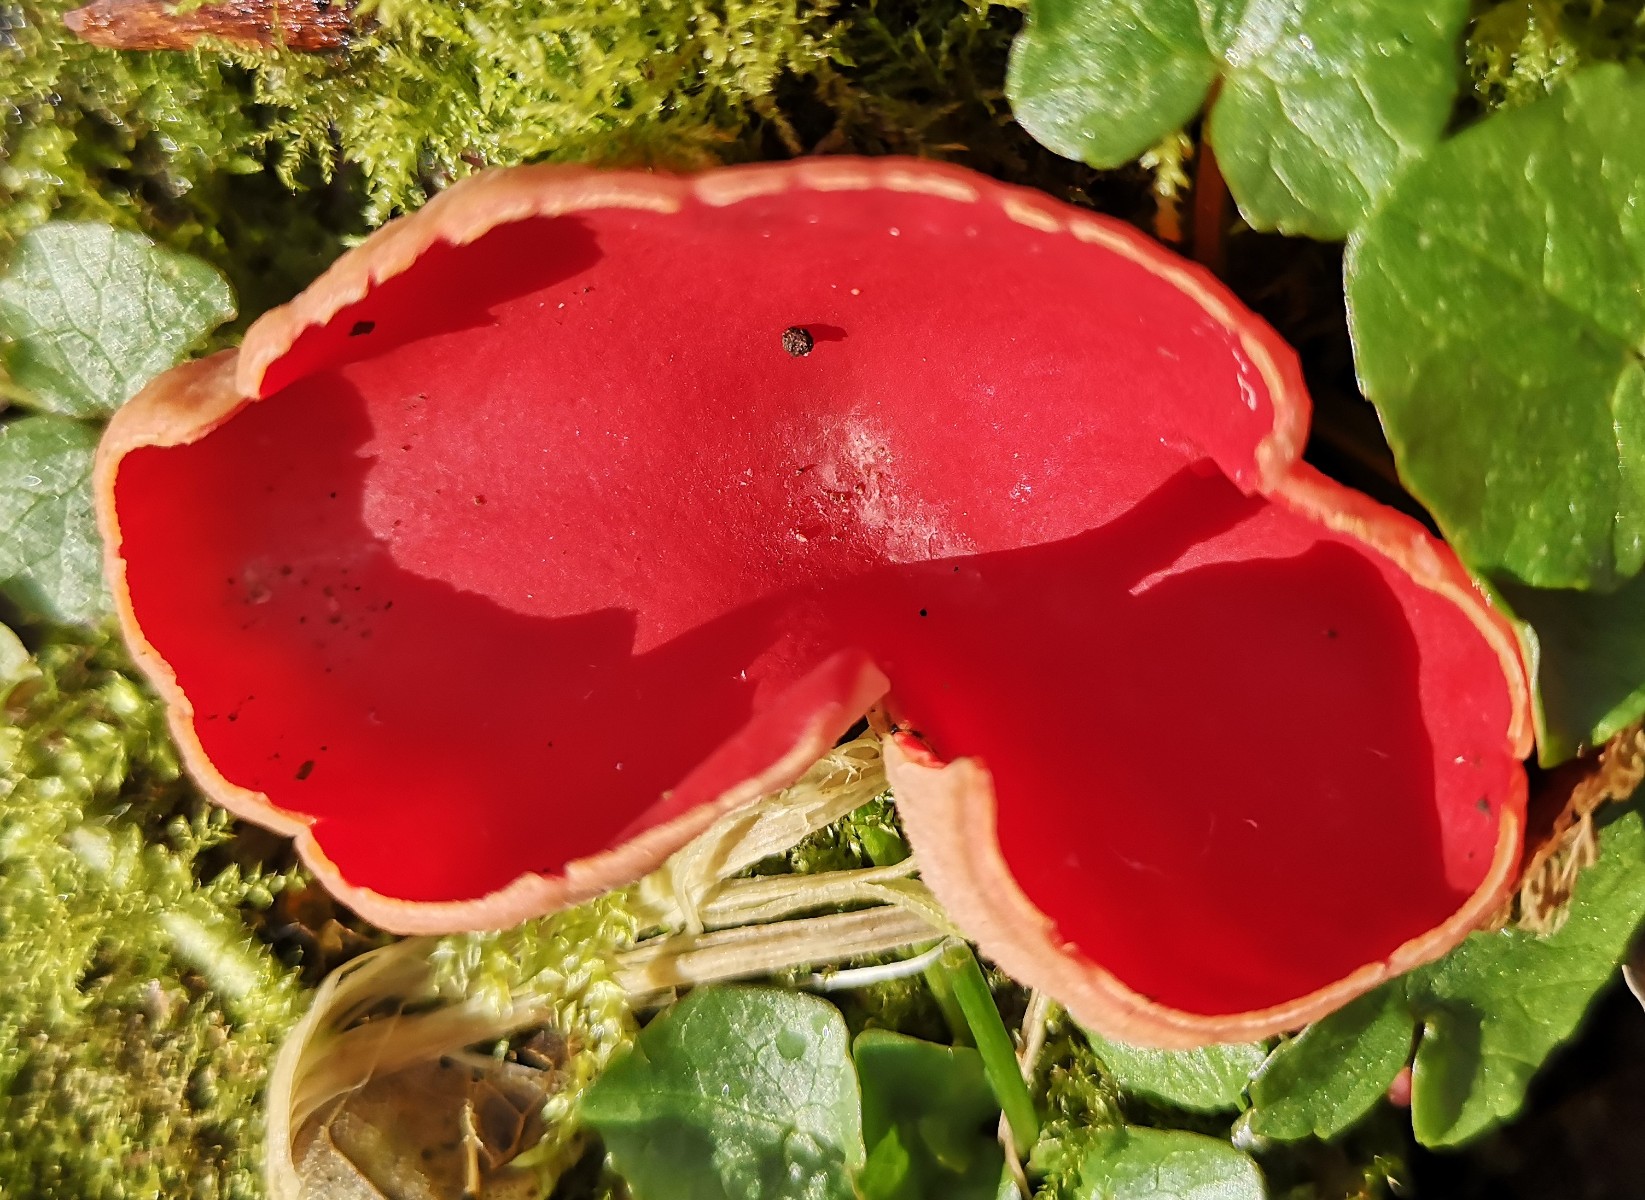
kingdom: Fungi
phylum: Ascomycota
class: Pezizomycetes
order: Pezizales
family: Sarcoscyphaceae
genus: Sarcoscypha
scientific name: Sarcoscypha austriaca
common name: krølhåret pragtbæger
